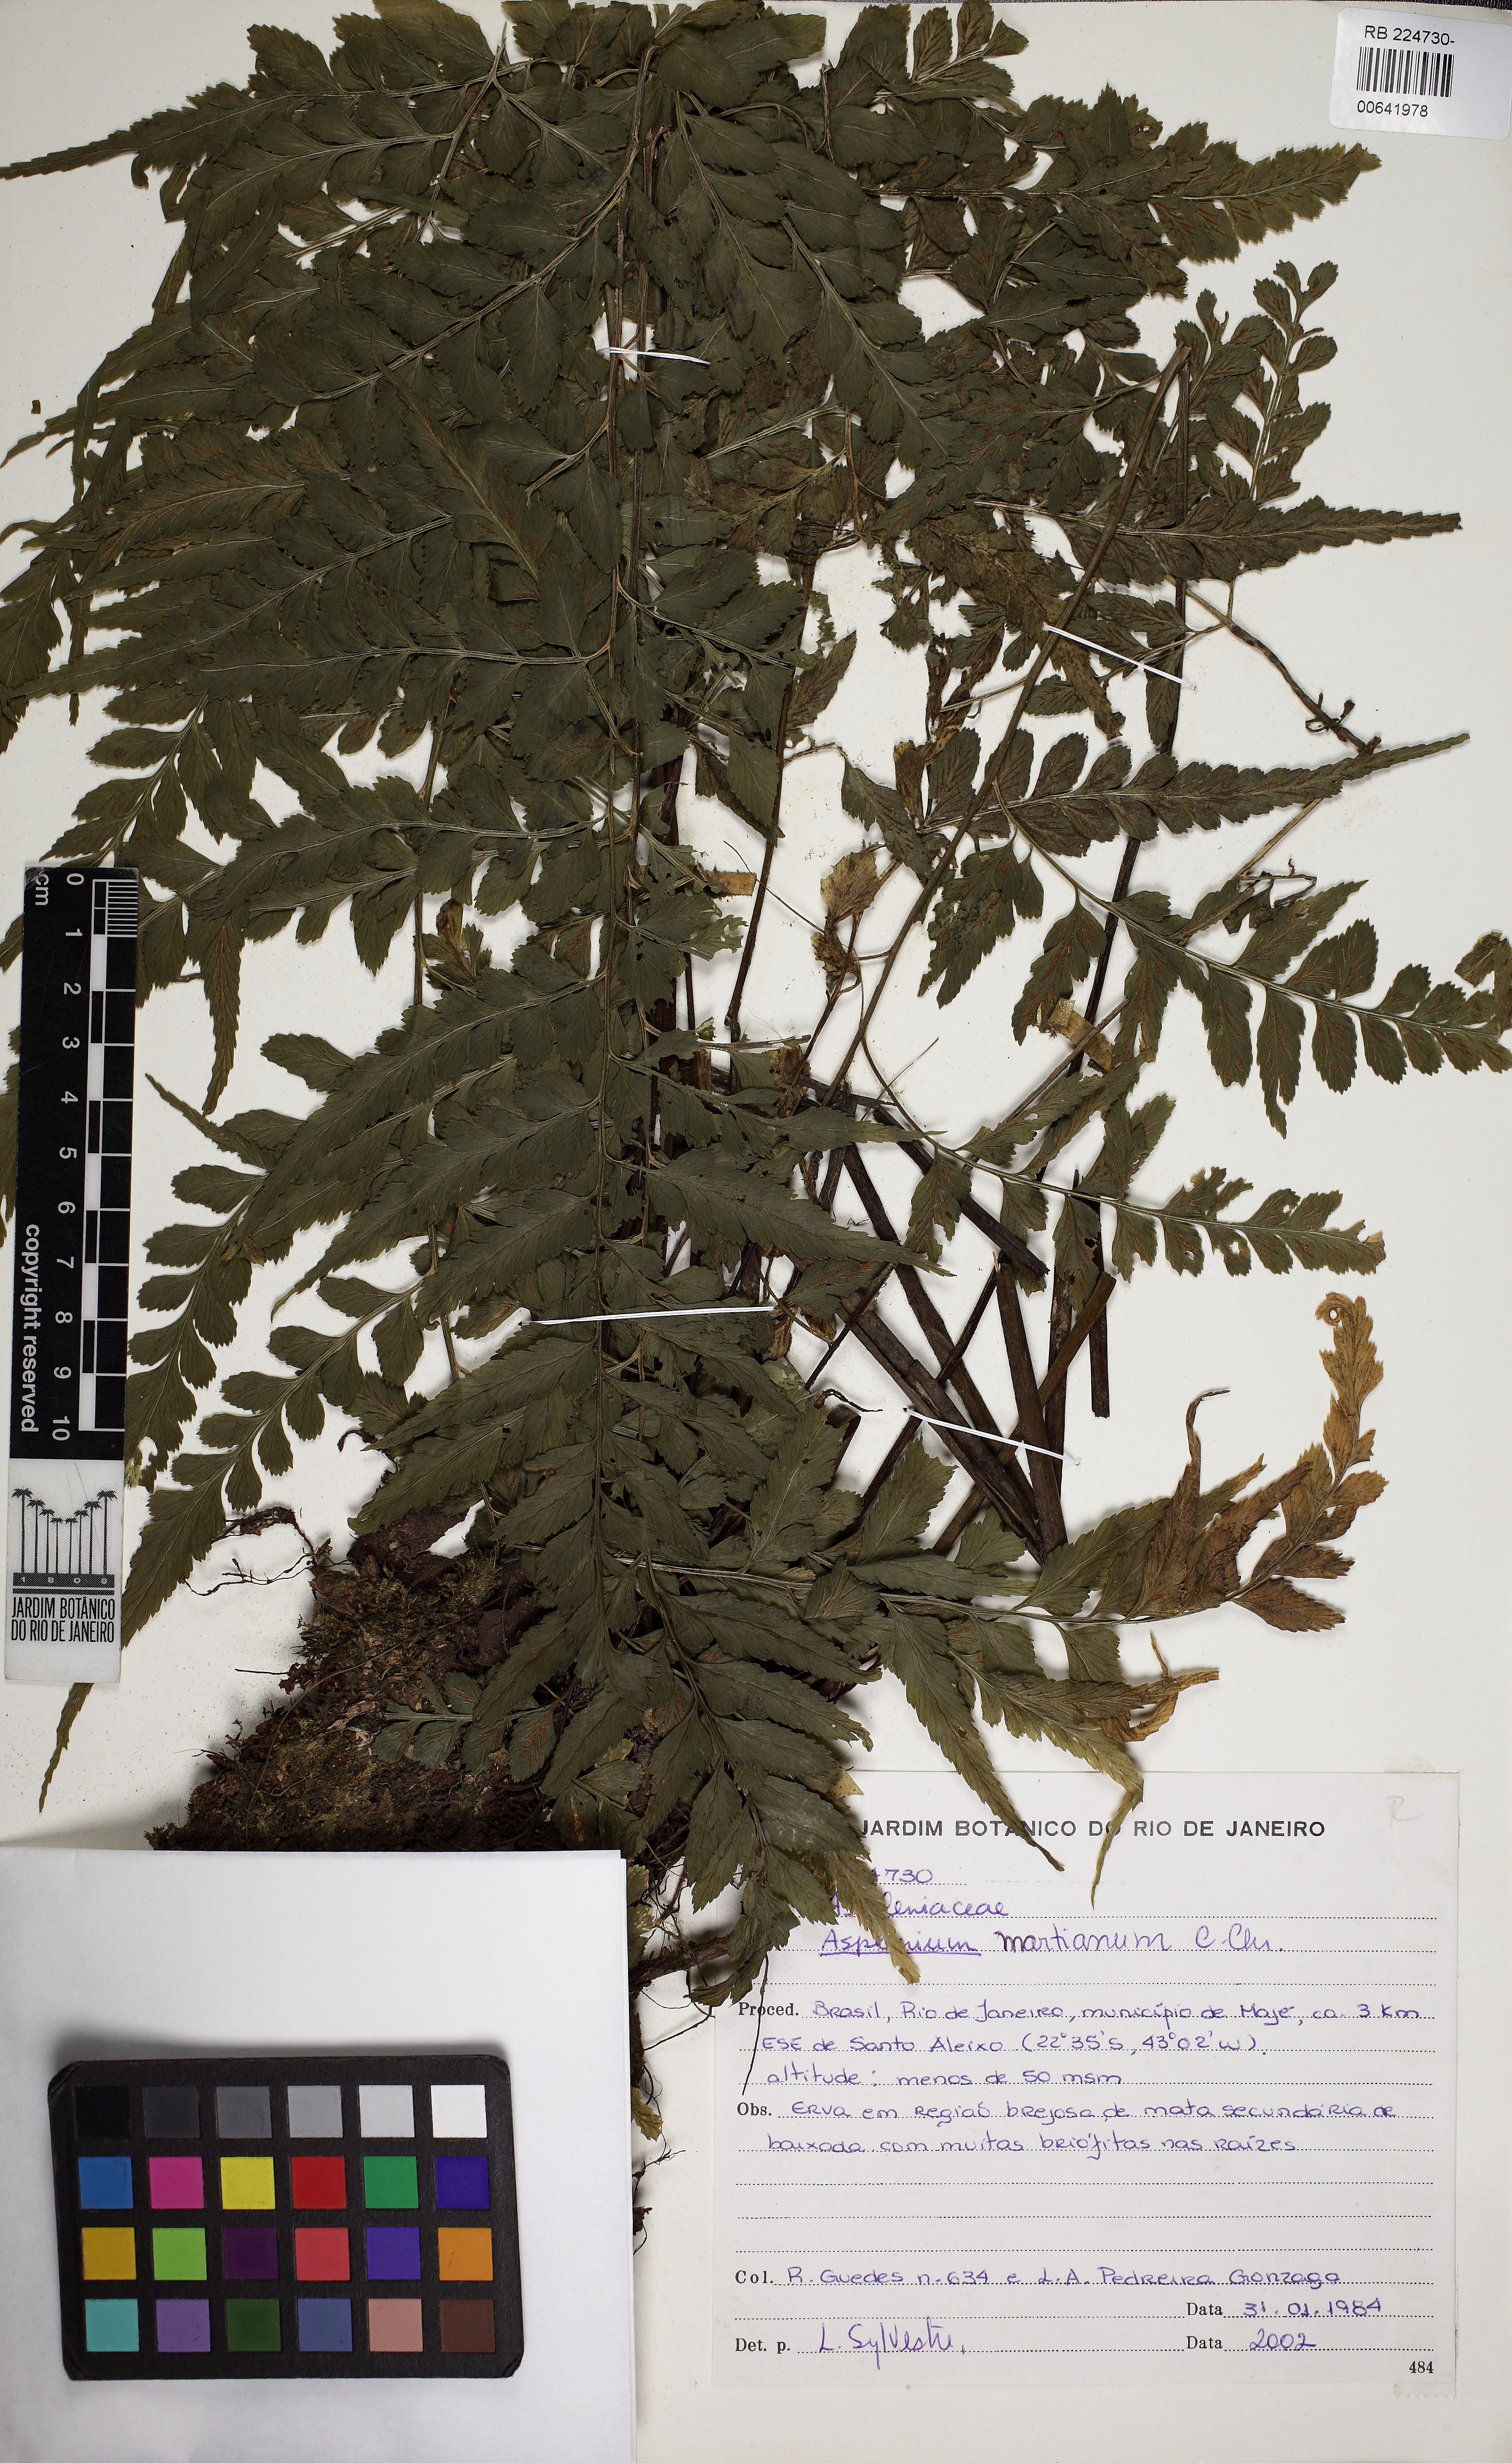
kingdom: Plantae
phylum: Tracheophyta
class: Polypodiopsida
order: Polypodiales
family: Aspleniaceae
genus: Asplenium
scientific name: Asplenium martianum
